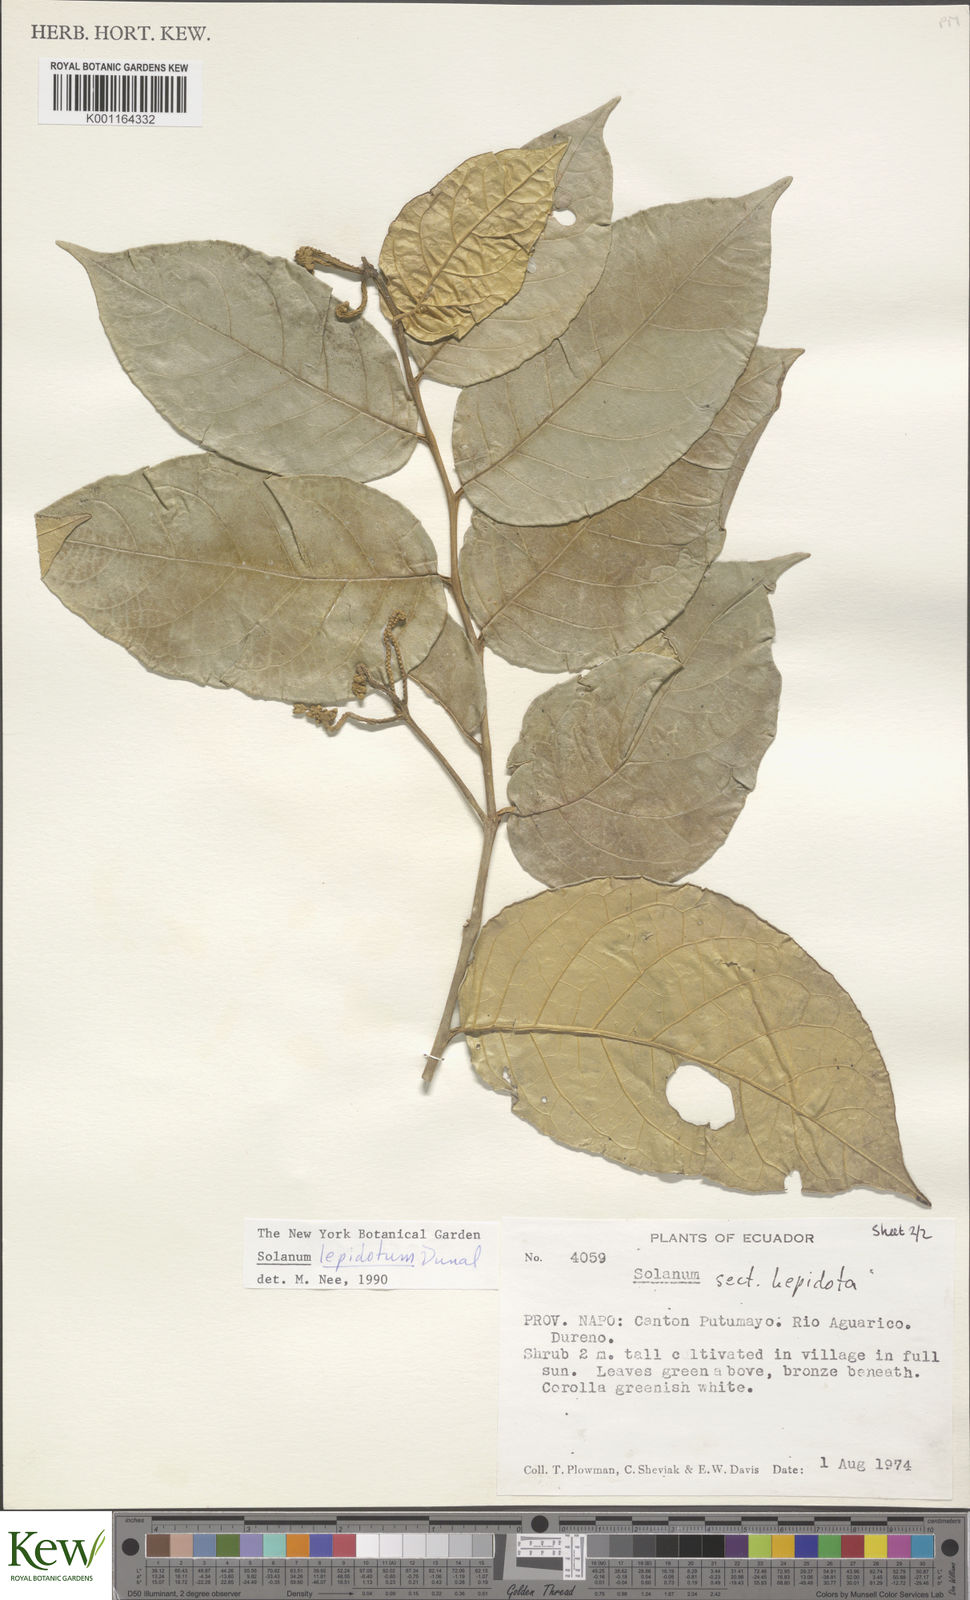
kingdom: Plantae
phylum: Tracheophyta
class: Magnoliopsida
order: Solanales
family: Solanaceae
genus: Solanum
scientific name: Solanum lepidotum
